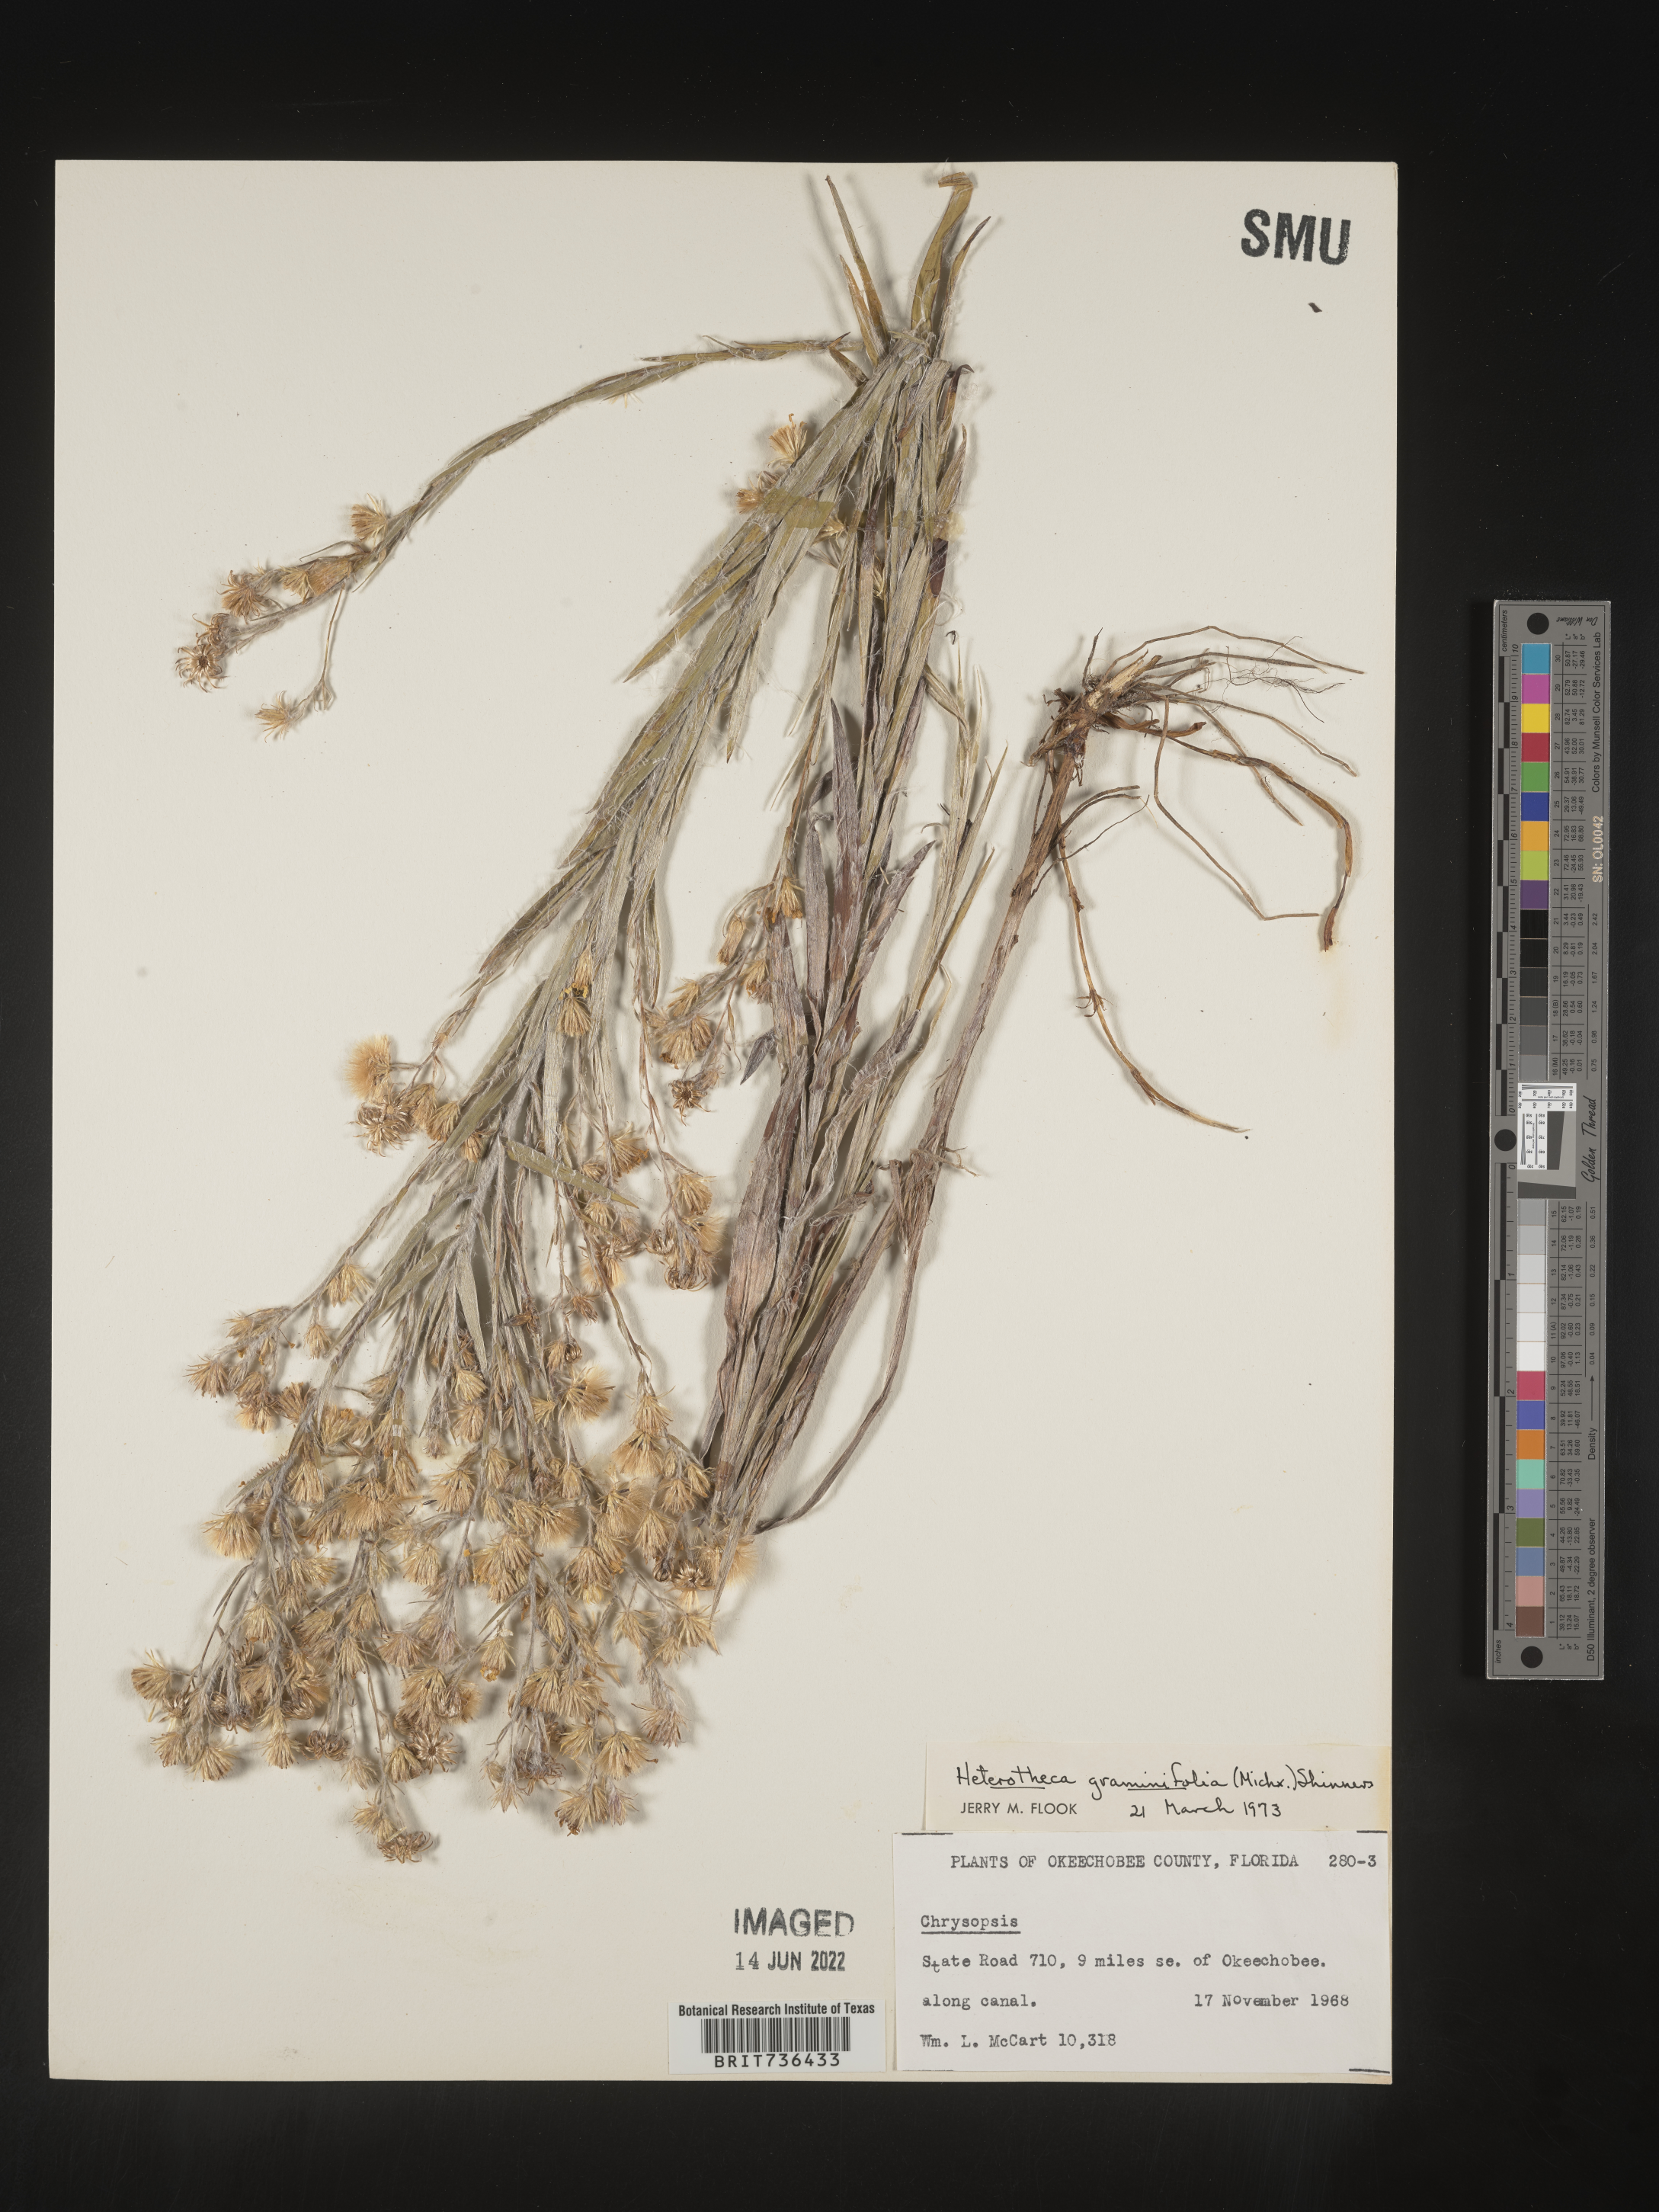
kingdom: Plantae
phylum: Tracheophyta
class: Magnoliopsida
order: Asterales
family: Asteraceae
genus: Pityopsis
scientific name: Pityopsis tracyi
